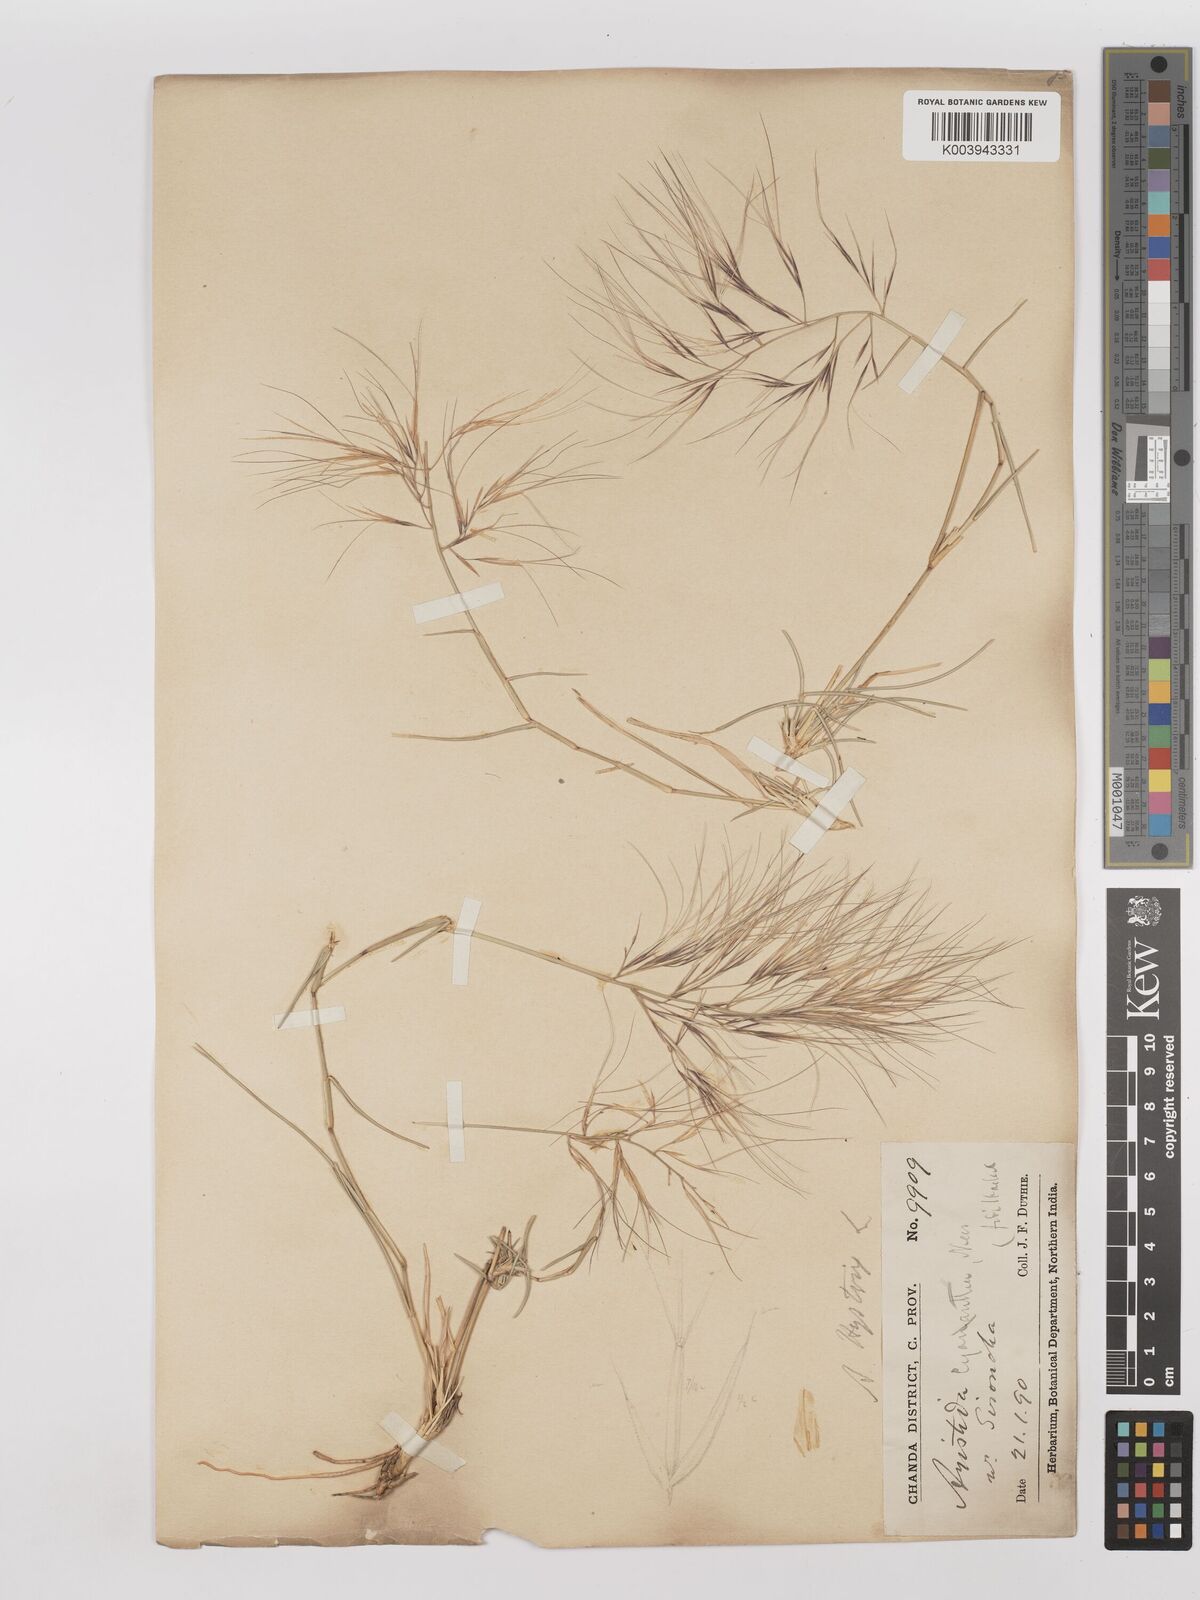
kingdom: Plantae
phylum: Tracheophyta
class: Liliopsida
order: Poales
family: Poaceae
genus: Aristida
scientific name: Aristida hystrix
